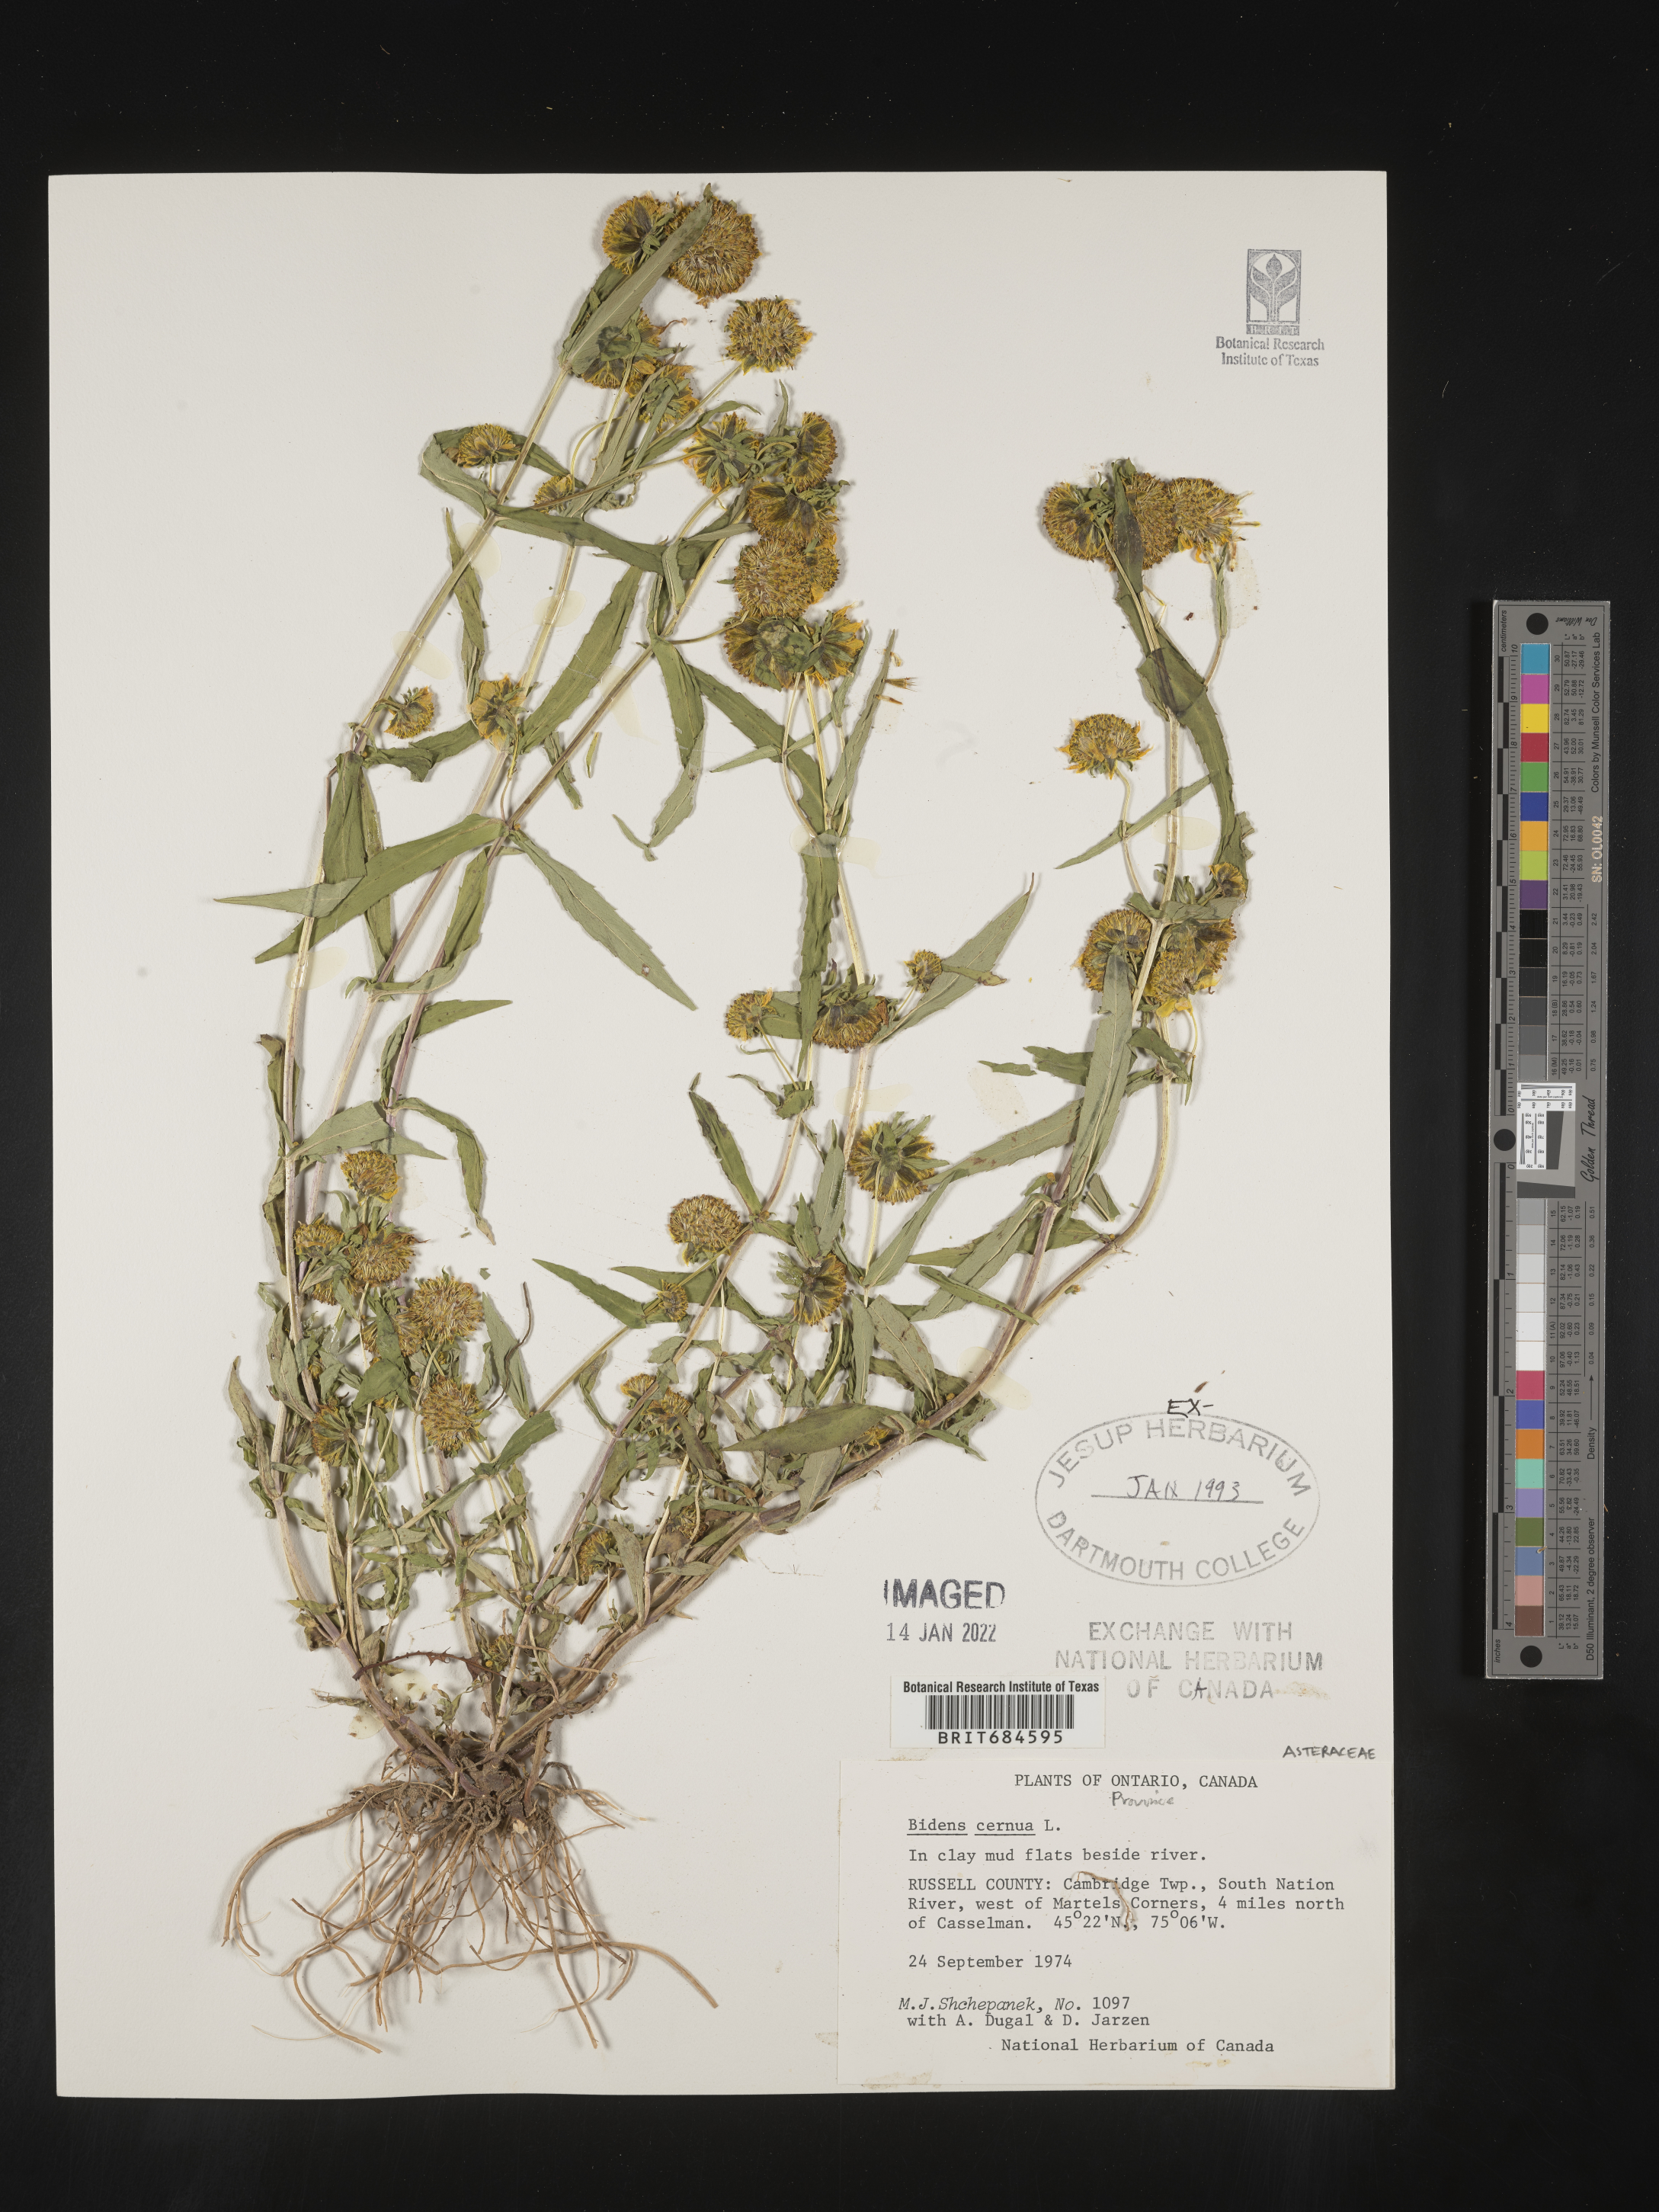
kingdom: Plantae
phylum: Tracheophyta
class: Magnoliopsida
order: Asterales
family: Asteraceae
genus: Bidens
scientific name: Bidens cernua
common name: Nodding bur-marigold
